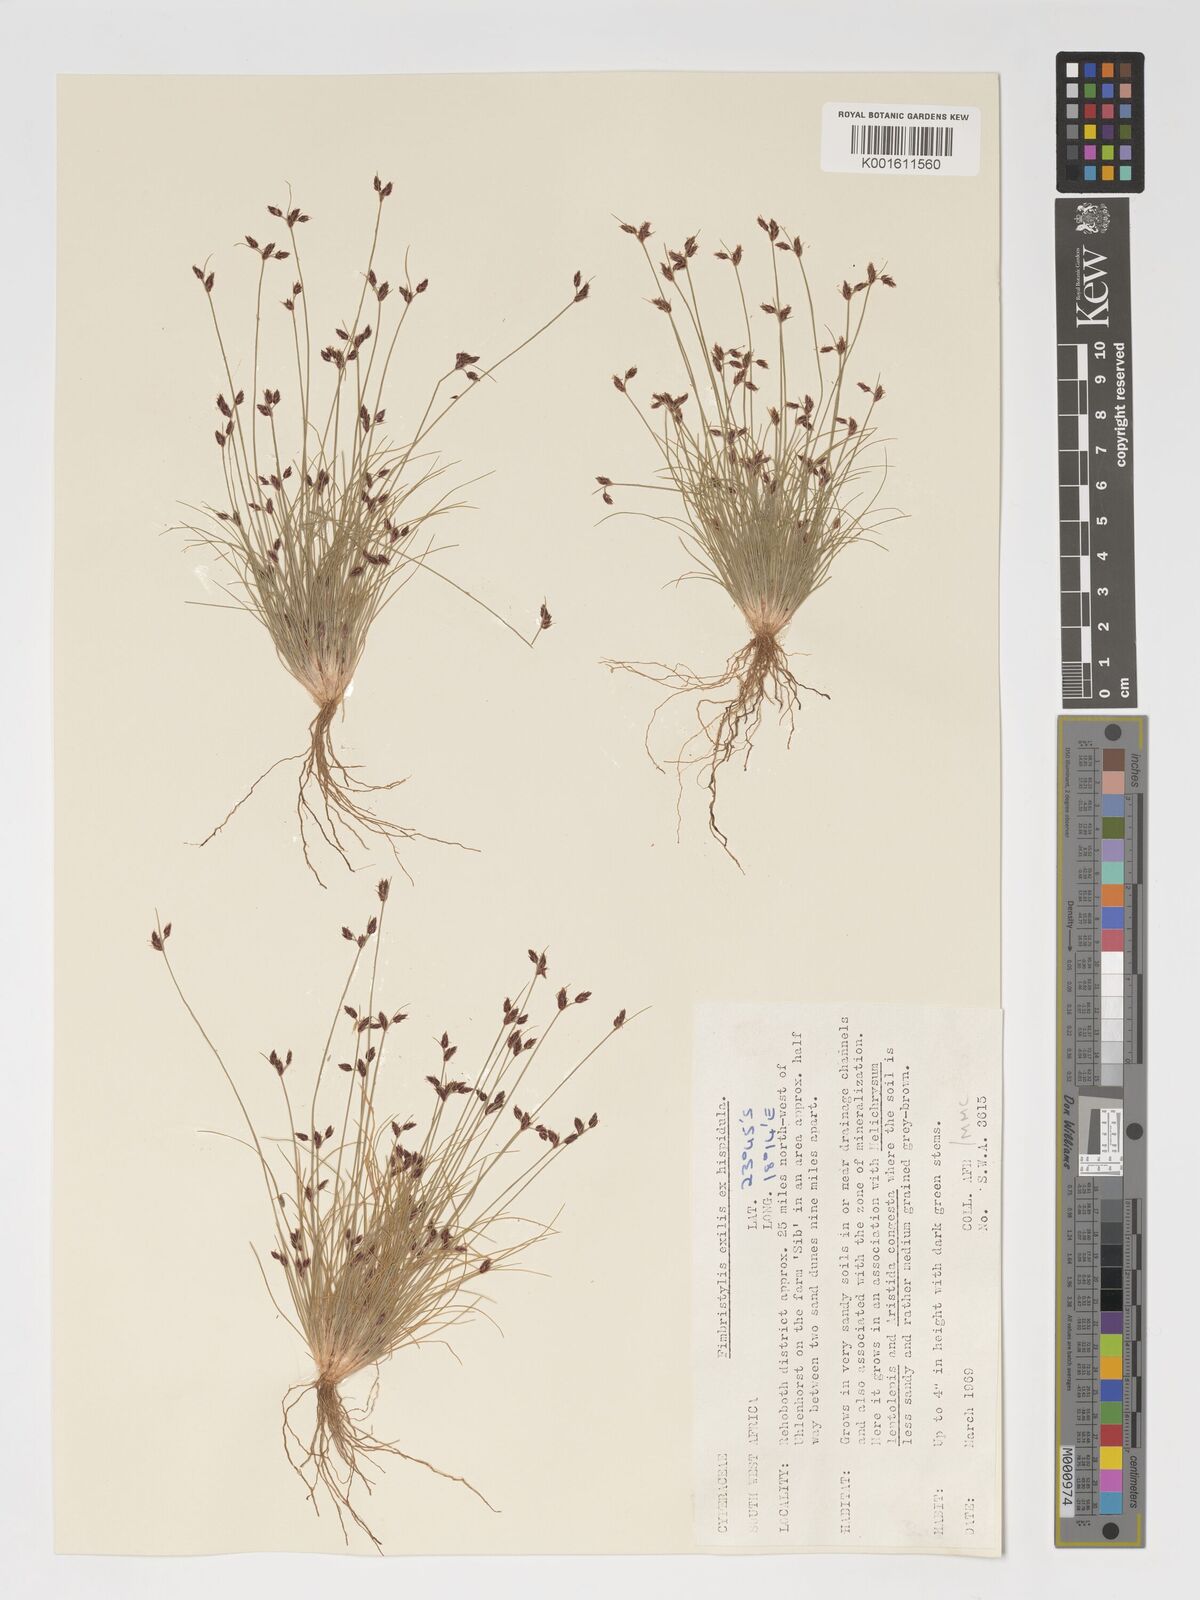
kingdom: Plantae
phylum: Tracheophyta
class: Liliopsida
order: Poales
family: Cyperaceae
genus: Bulbostylis
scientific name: Bulbostylis hispidula
